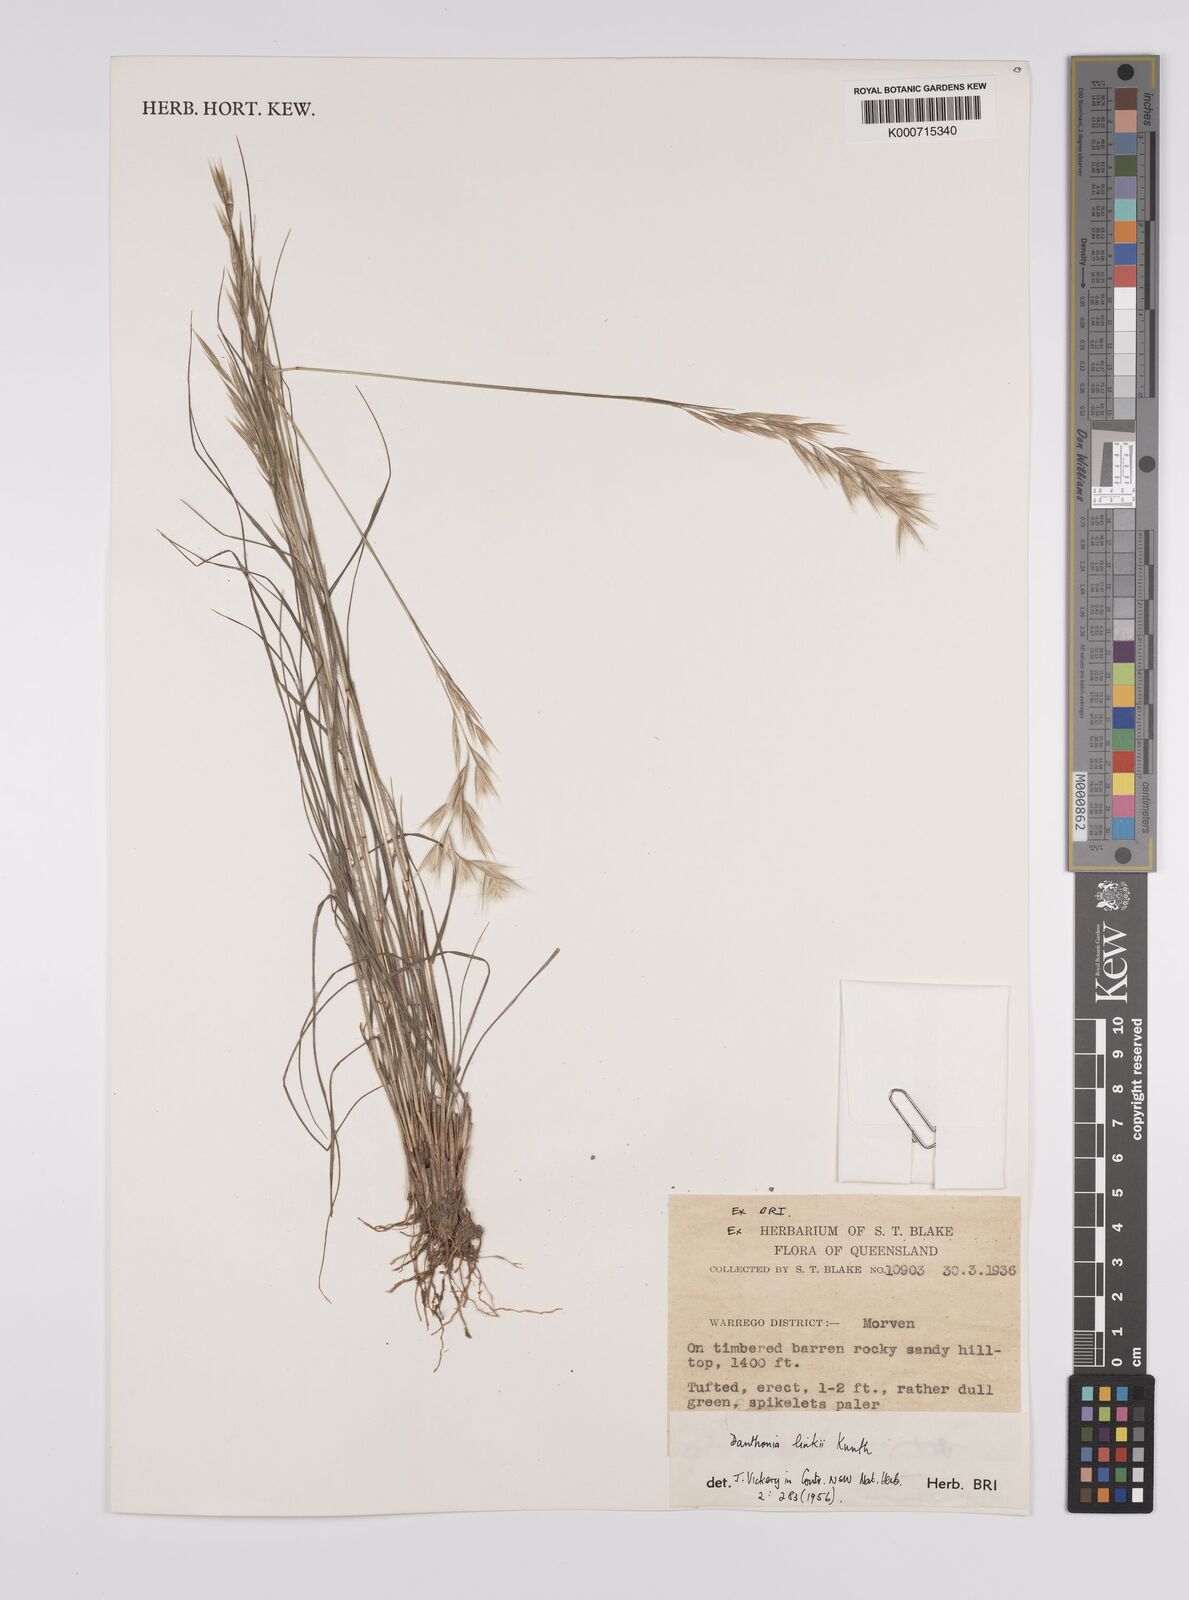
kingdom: Plantae
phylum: Tracheophyta
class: Liliopsida
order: Poales
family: Poaceae
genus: Rytidosperma
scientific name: Rytidosperma bipartitum
